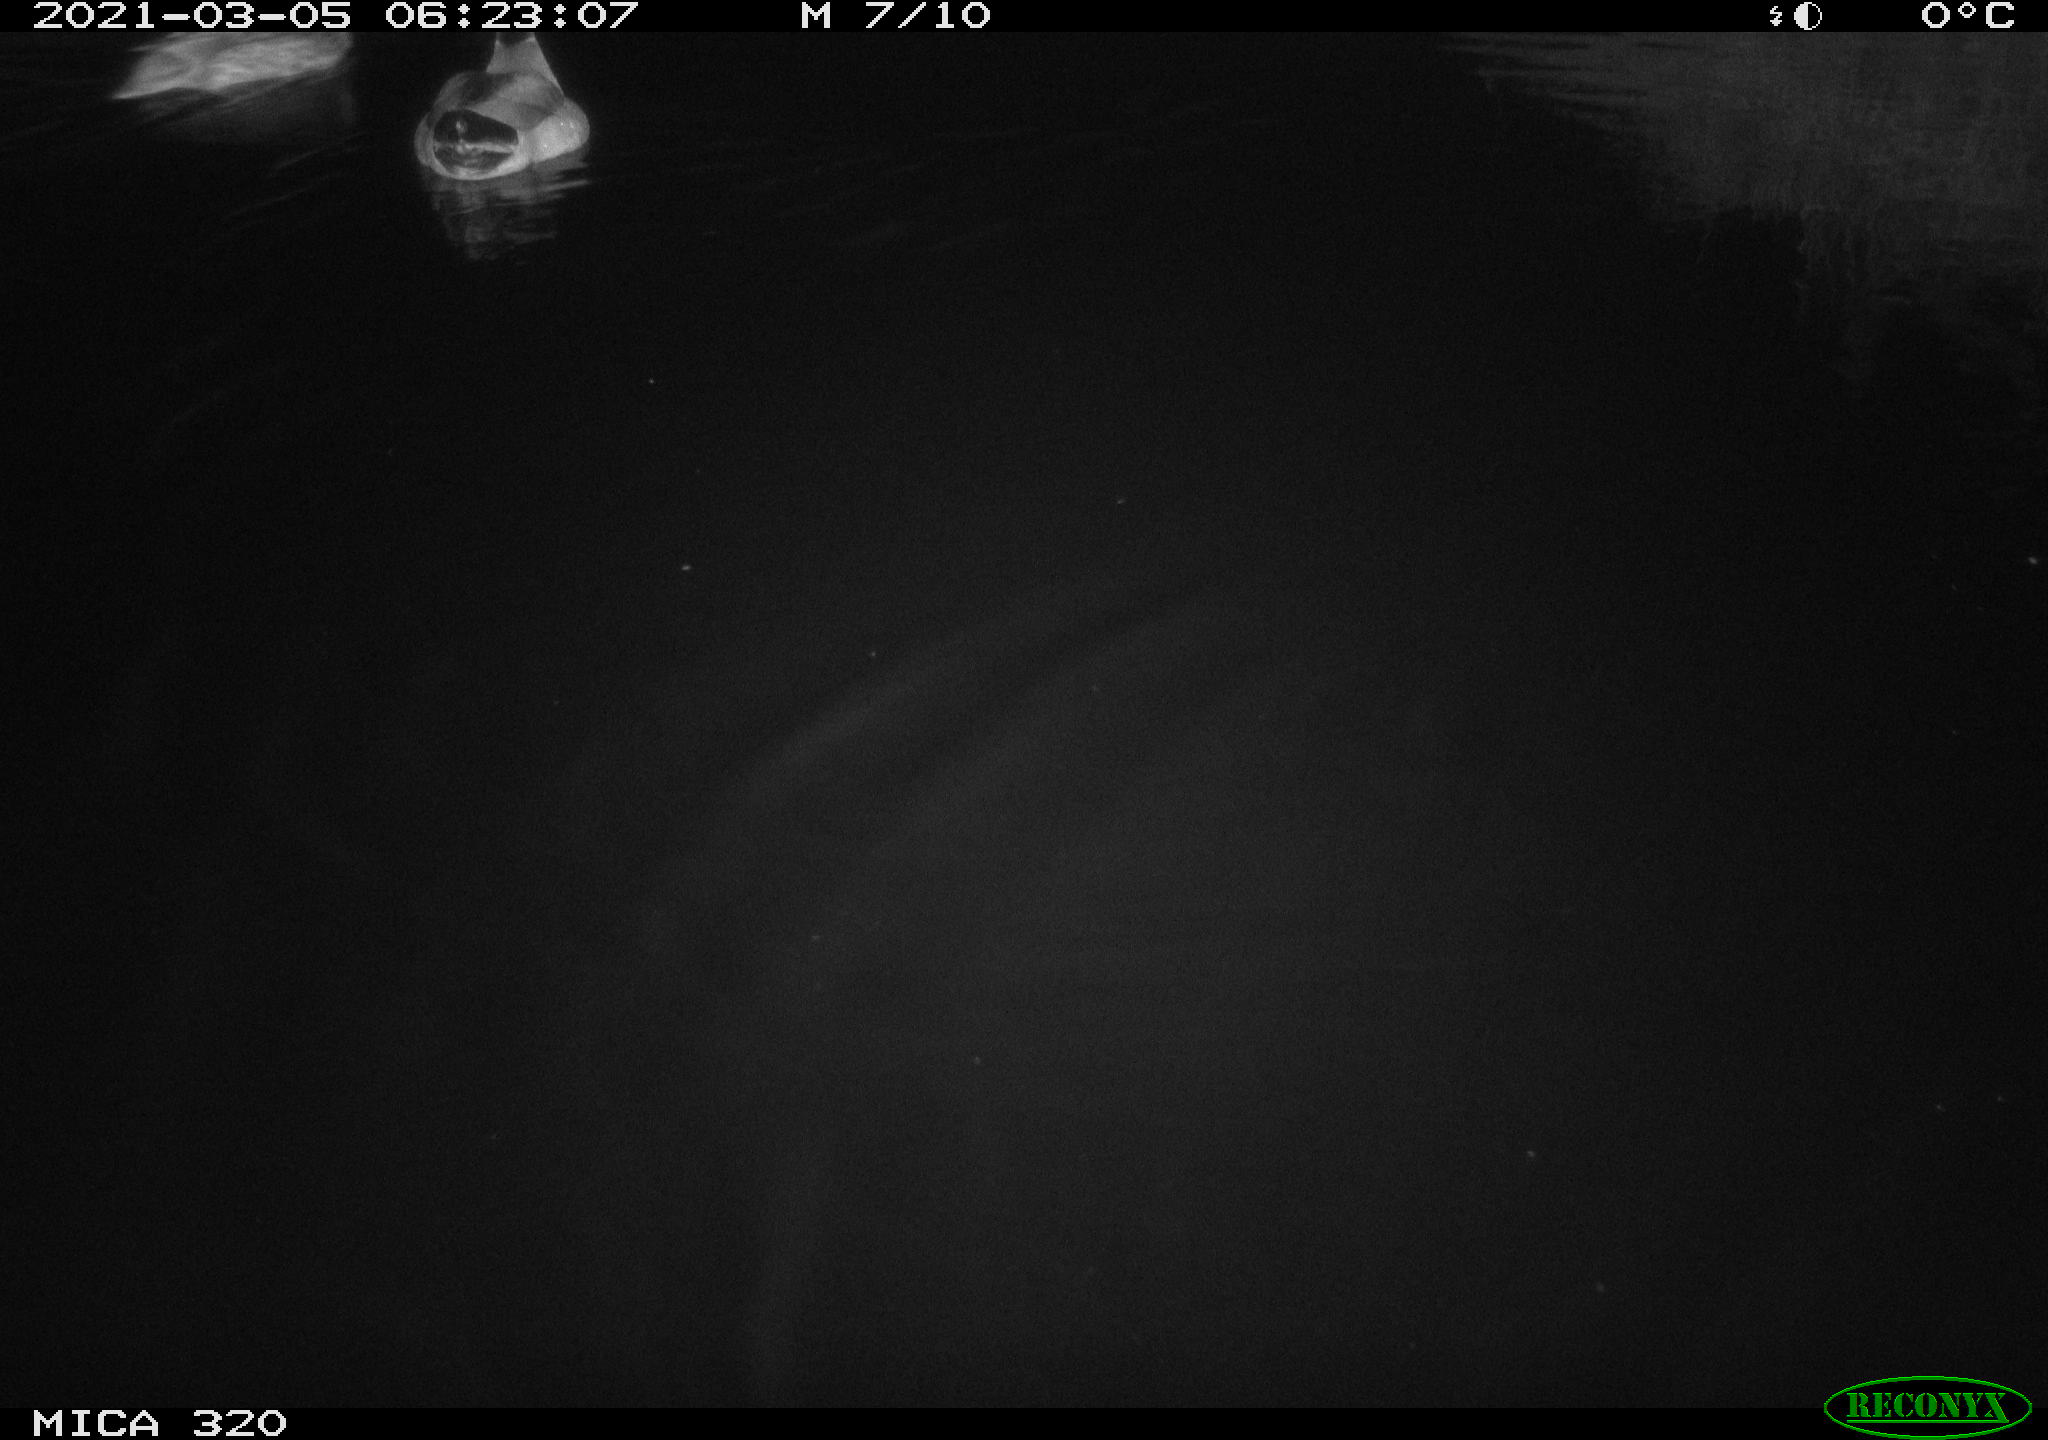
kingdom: Animalia
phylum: Chordata
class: Aves
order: Anseriformes
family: Anatidae
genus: Anas
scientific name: Anas platyrhynchos
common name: Mallard
